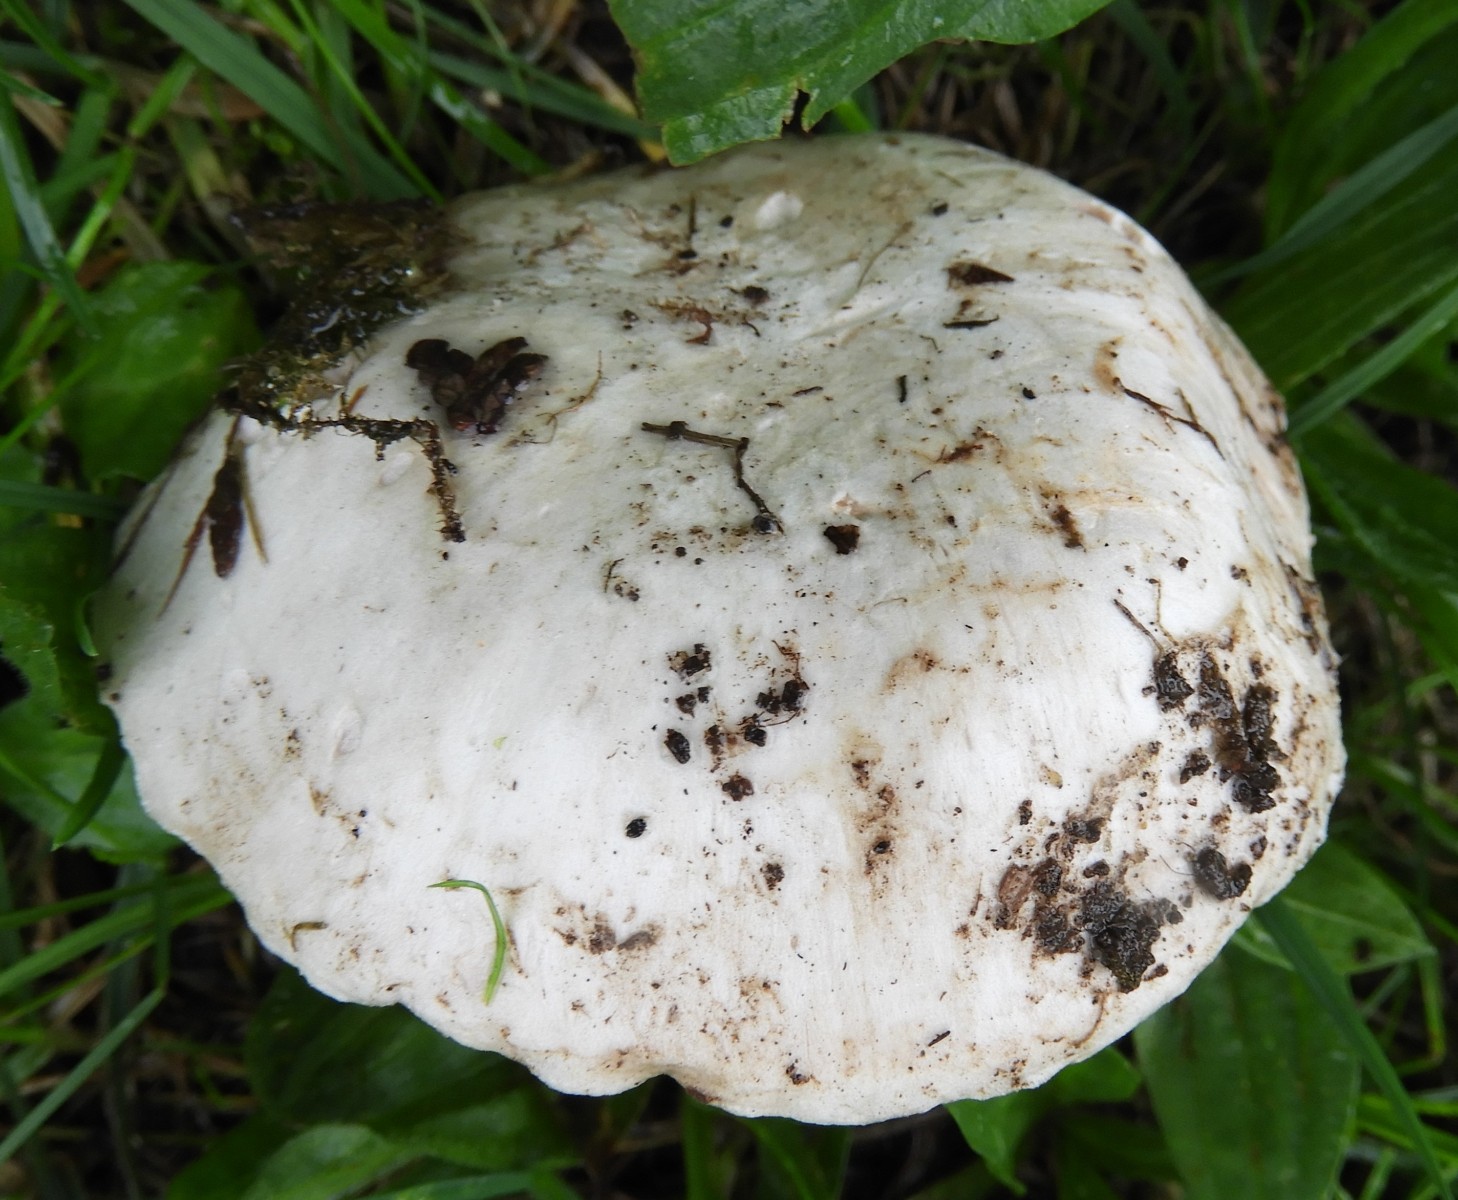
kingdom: Fungi
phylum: Basidiomycota
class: Agaricomycetes
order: Agaricales
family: Agaricaceae
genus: Agaricus
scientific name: Agaricus bitorquis
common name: vej-champignon
